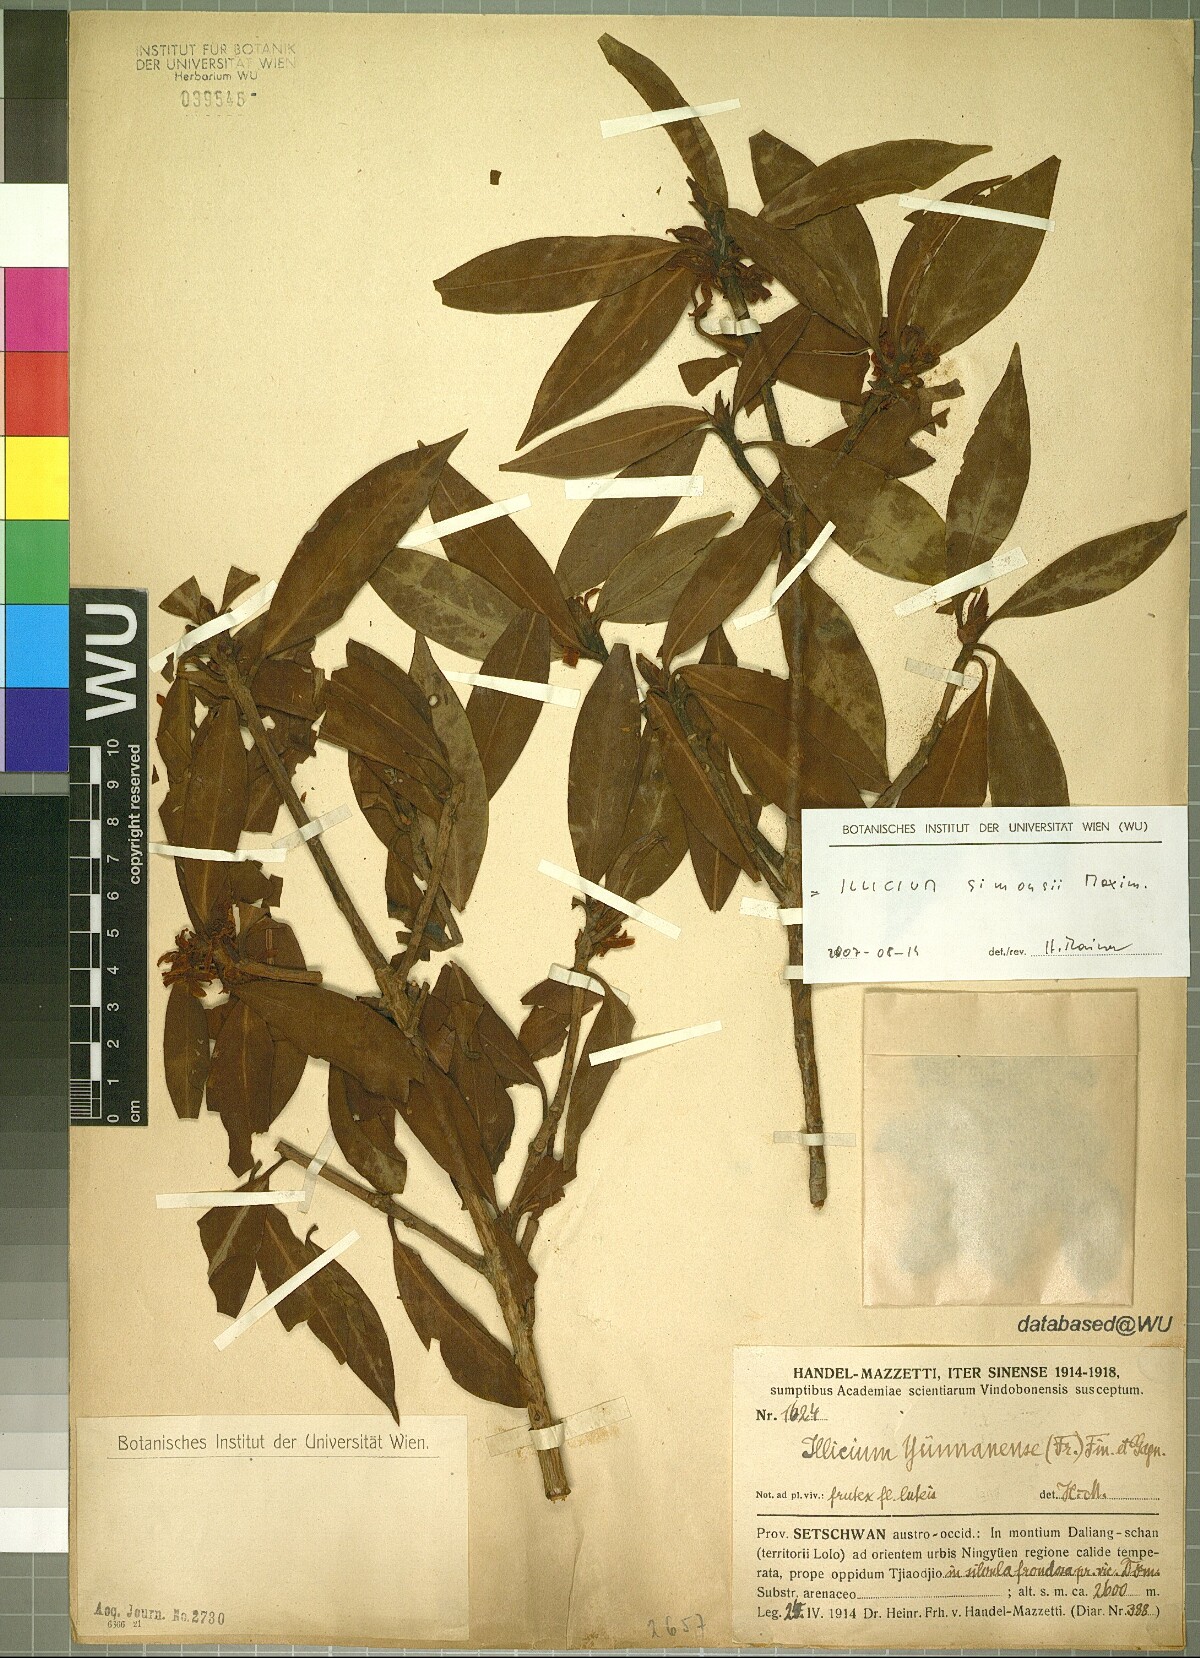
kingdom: Plantae
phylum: Tracheophyta
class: Magnoliopsida
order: Austrobaileyales
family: Schisandraceae
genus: Illicium
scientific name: Illicium simonsii
